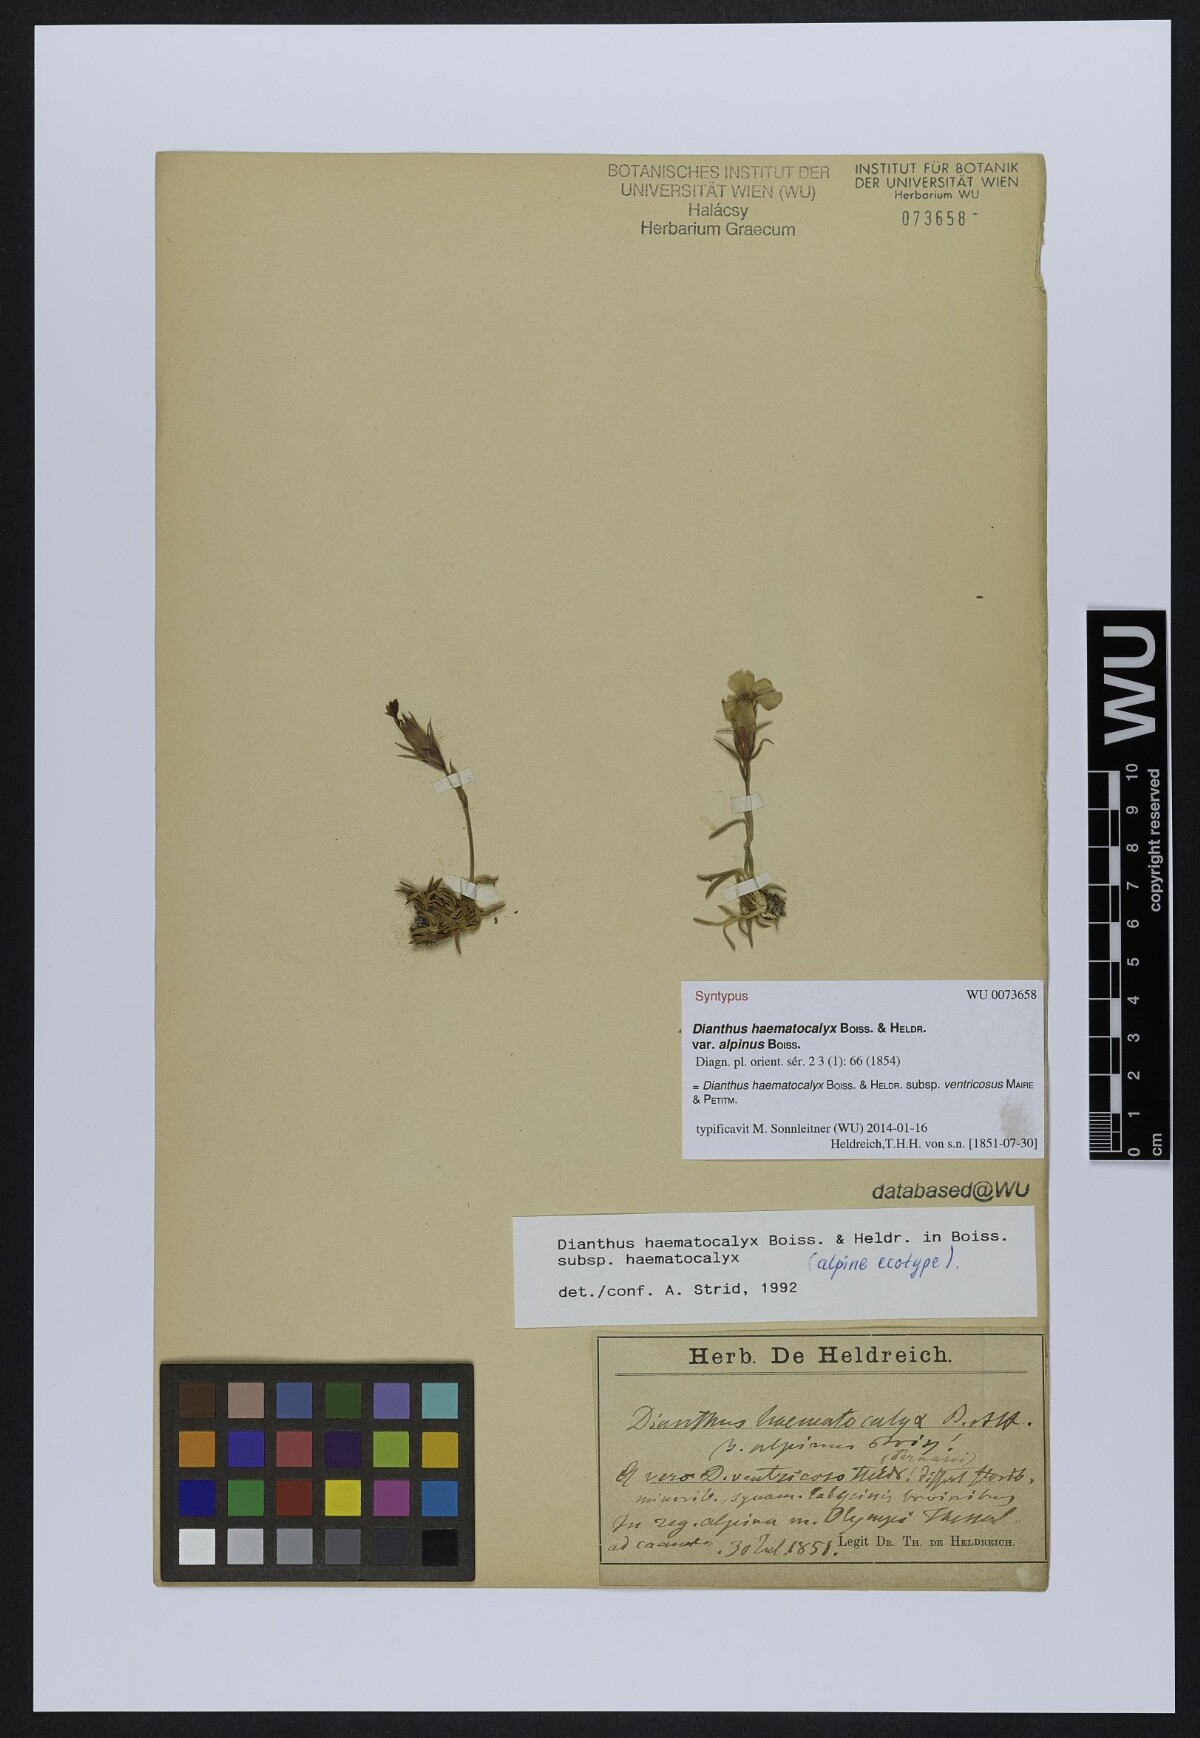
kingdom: Plantae
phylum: Tracheophyta
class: Magnoliopsida
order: Caryophyllales
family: Caryophyllaceae
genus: Dianthus
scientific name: Dianthus haematocalyx
